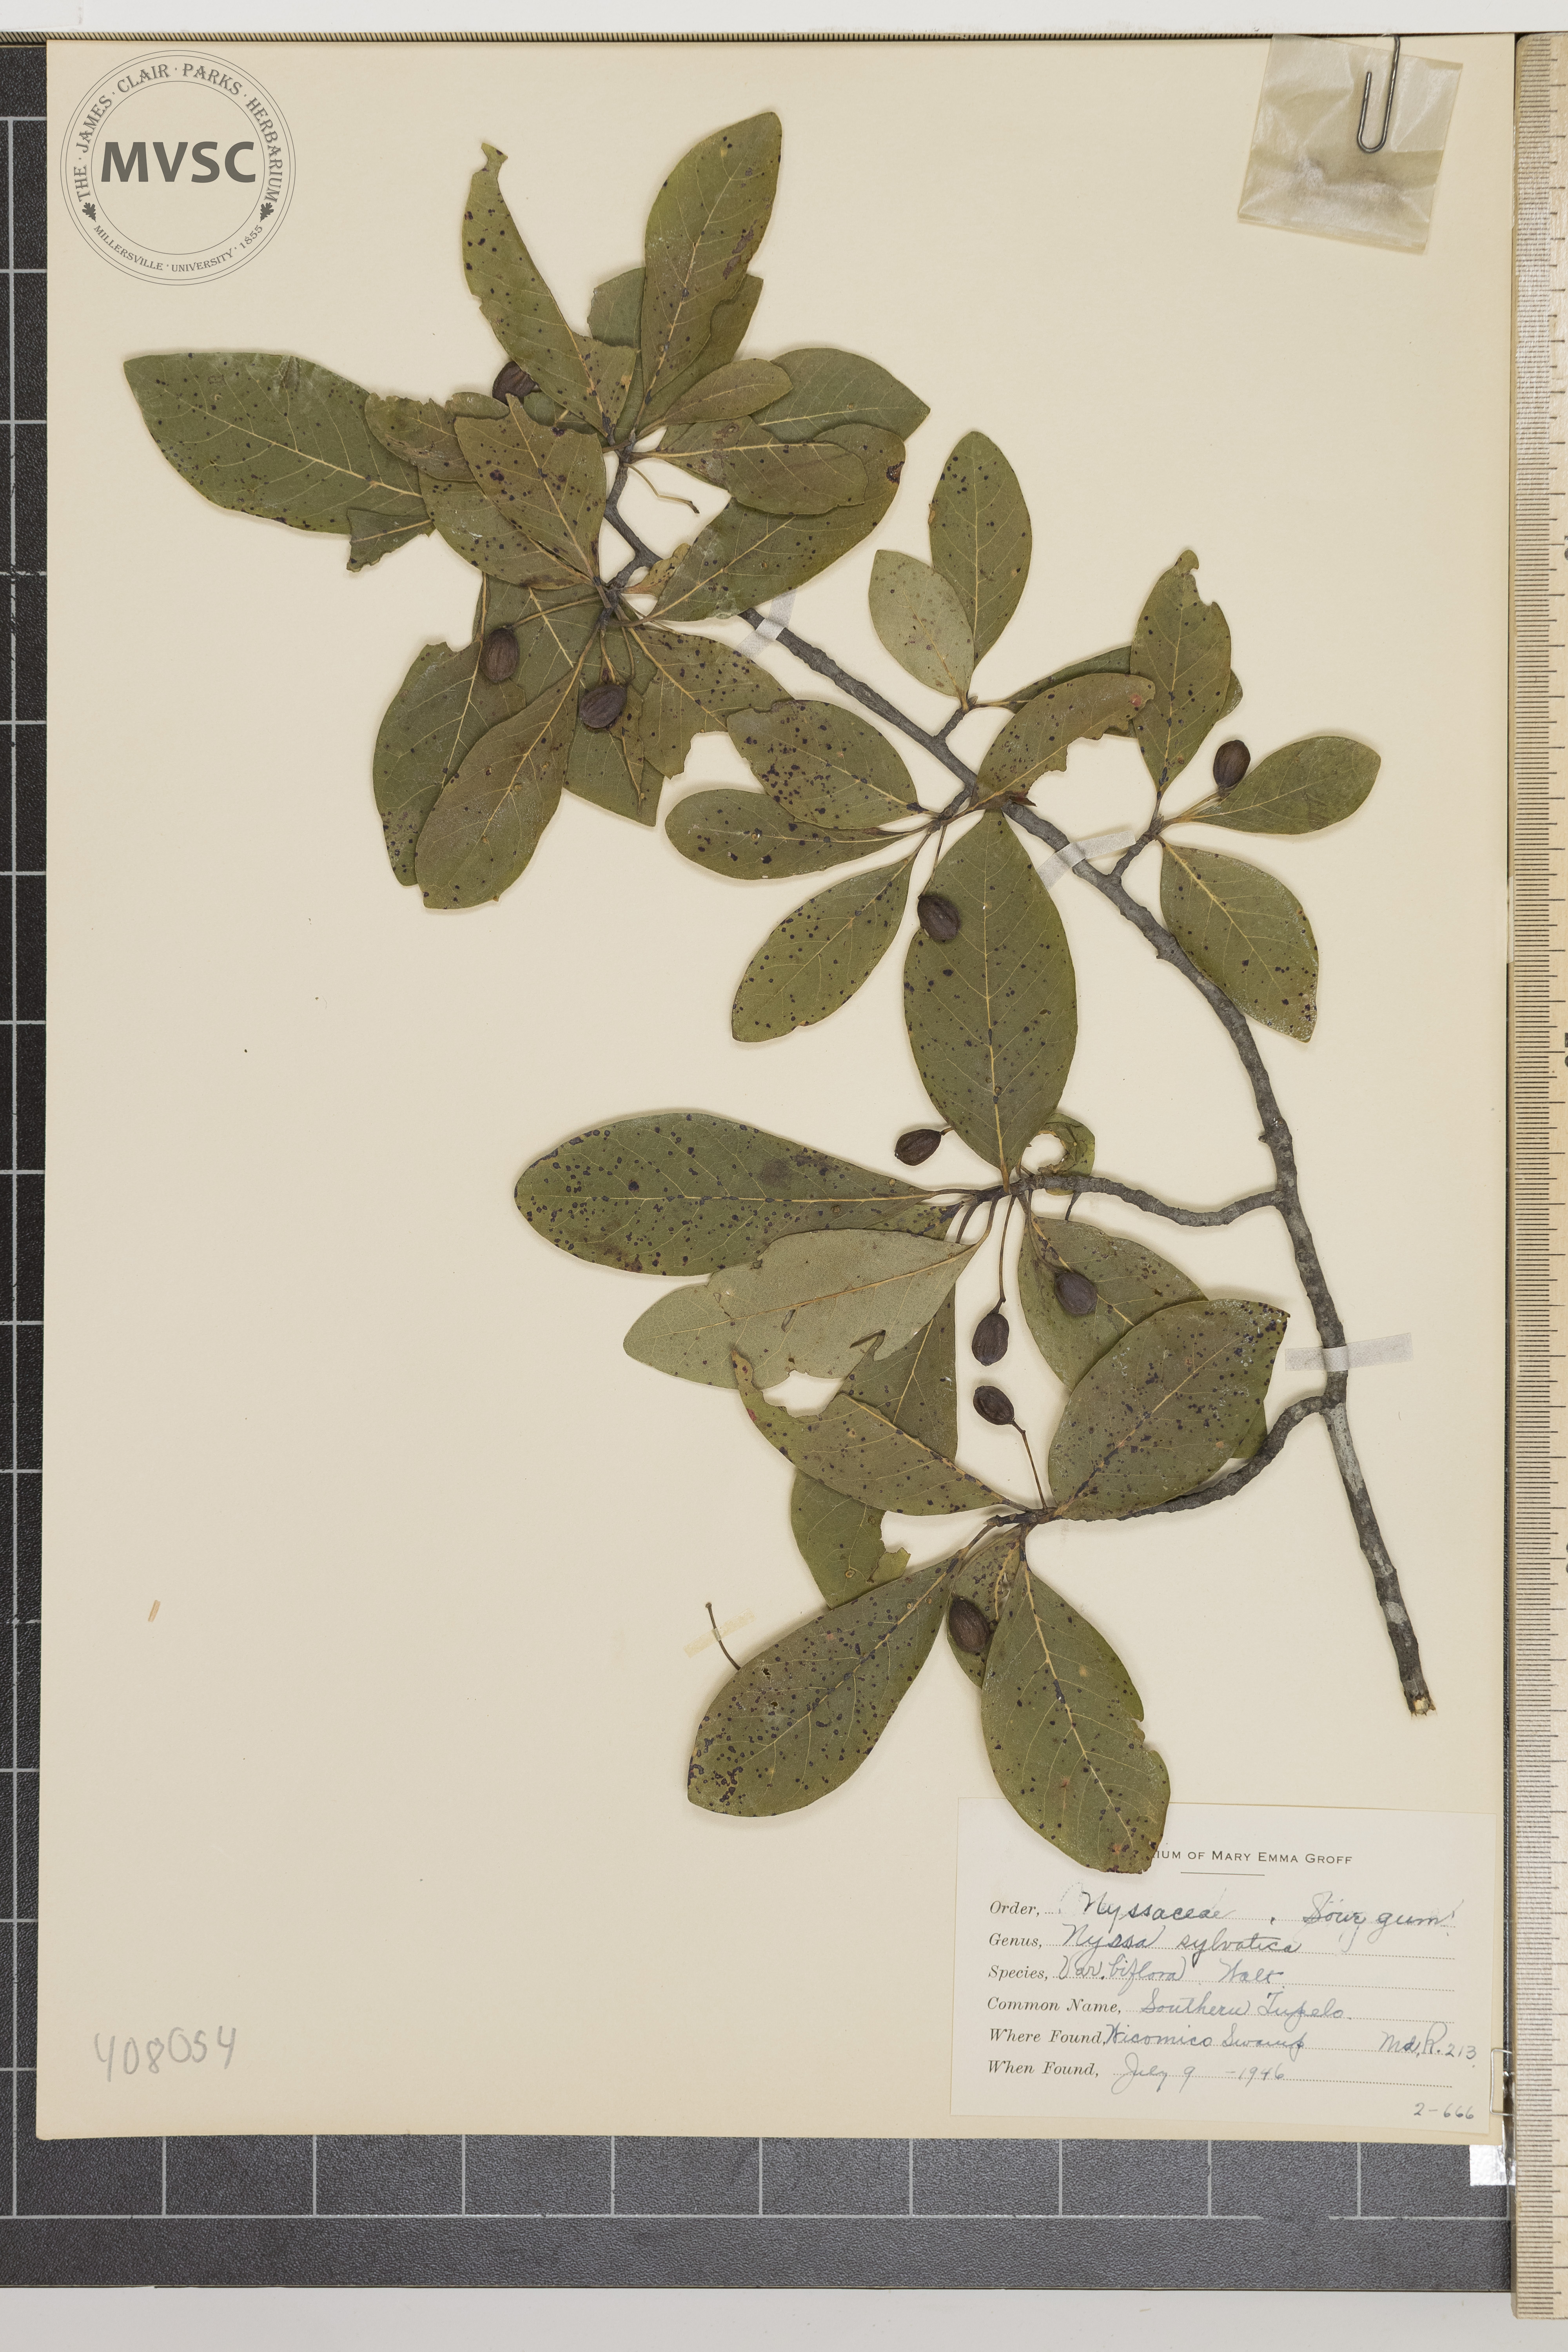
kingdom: Plantae
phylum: Tracheophyta
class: Magnoliopsida
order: Cornales
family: Nyssaceae
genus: Nyssa
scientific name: Nyssa sylvatica
